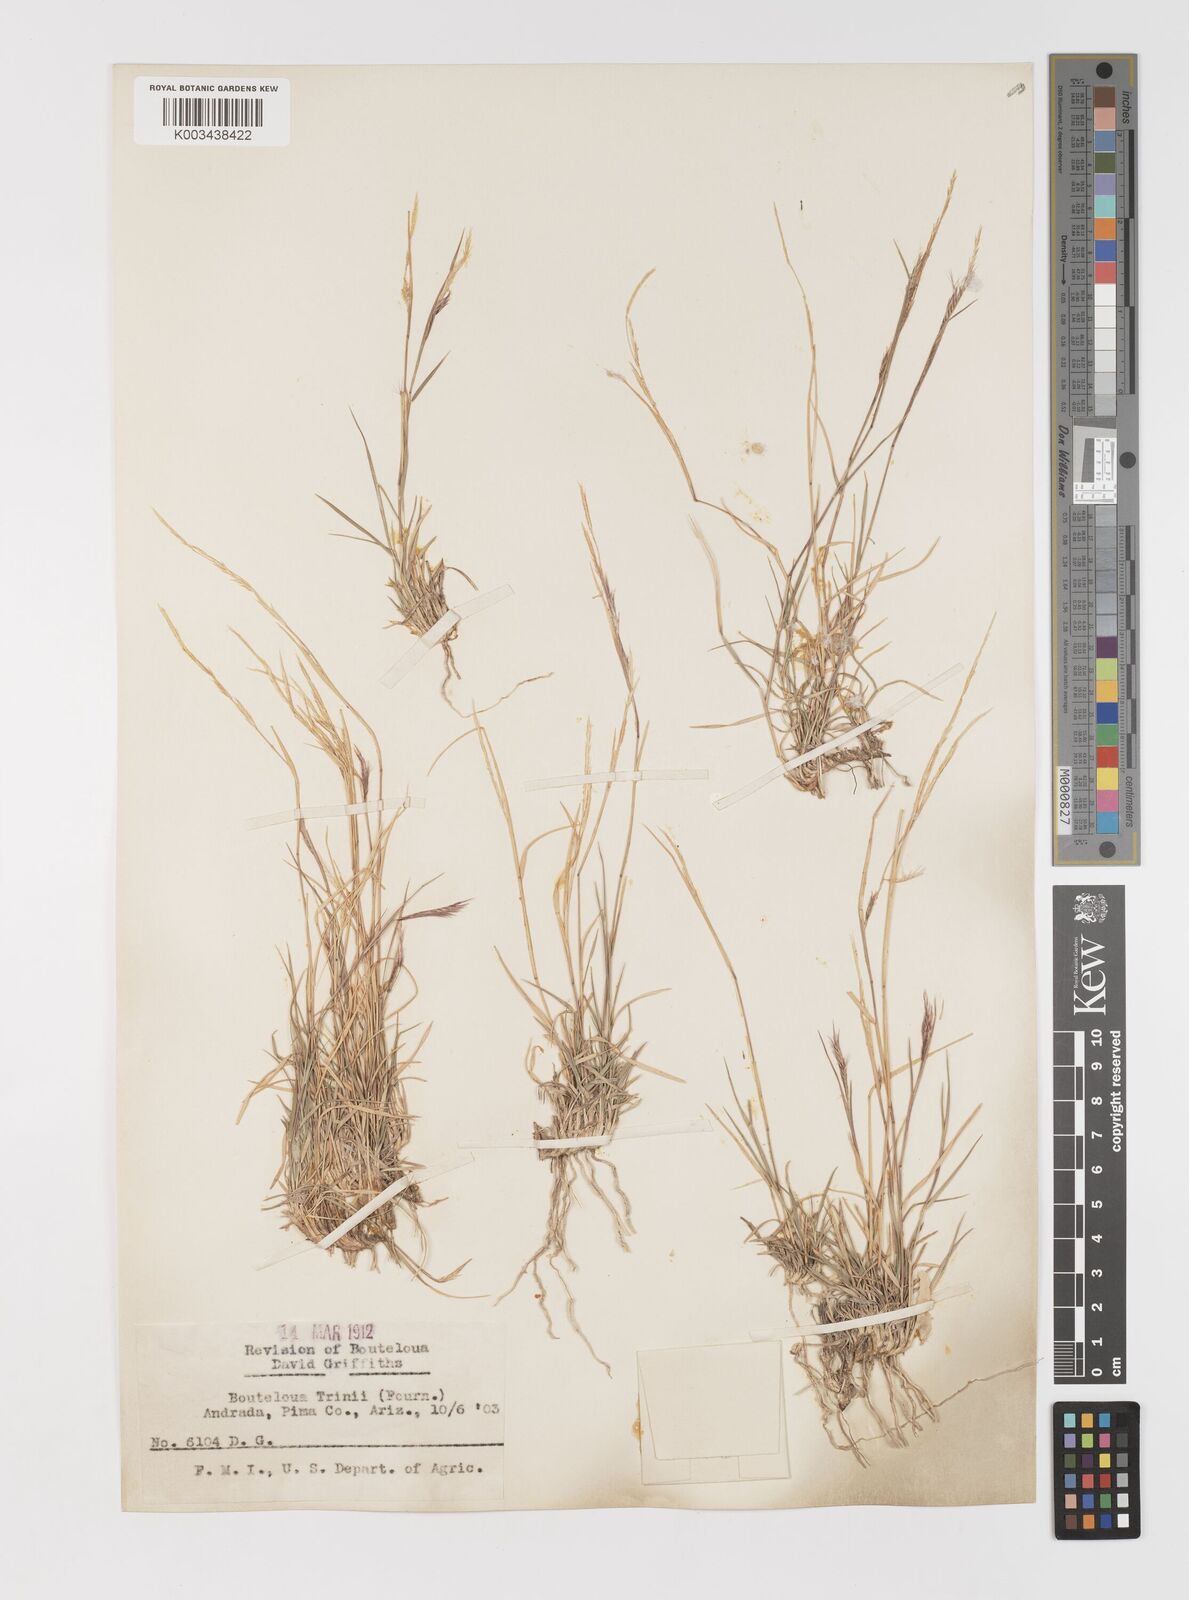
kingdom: Plantae
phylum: Tracheophyta
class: Liliopsida
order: Poales
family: Poaceae
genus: Bouteloua
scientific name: Bouteloua trifida
